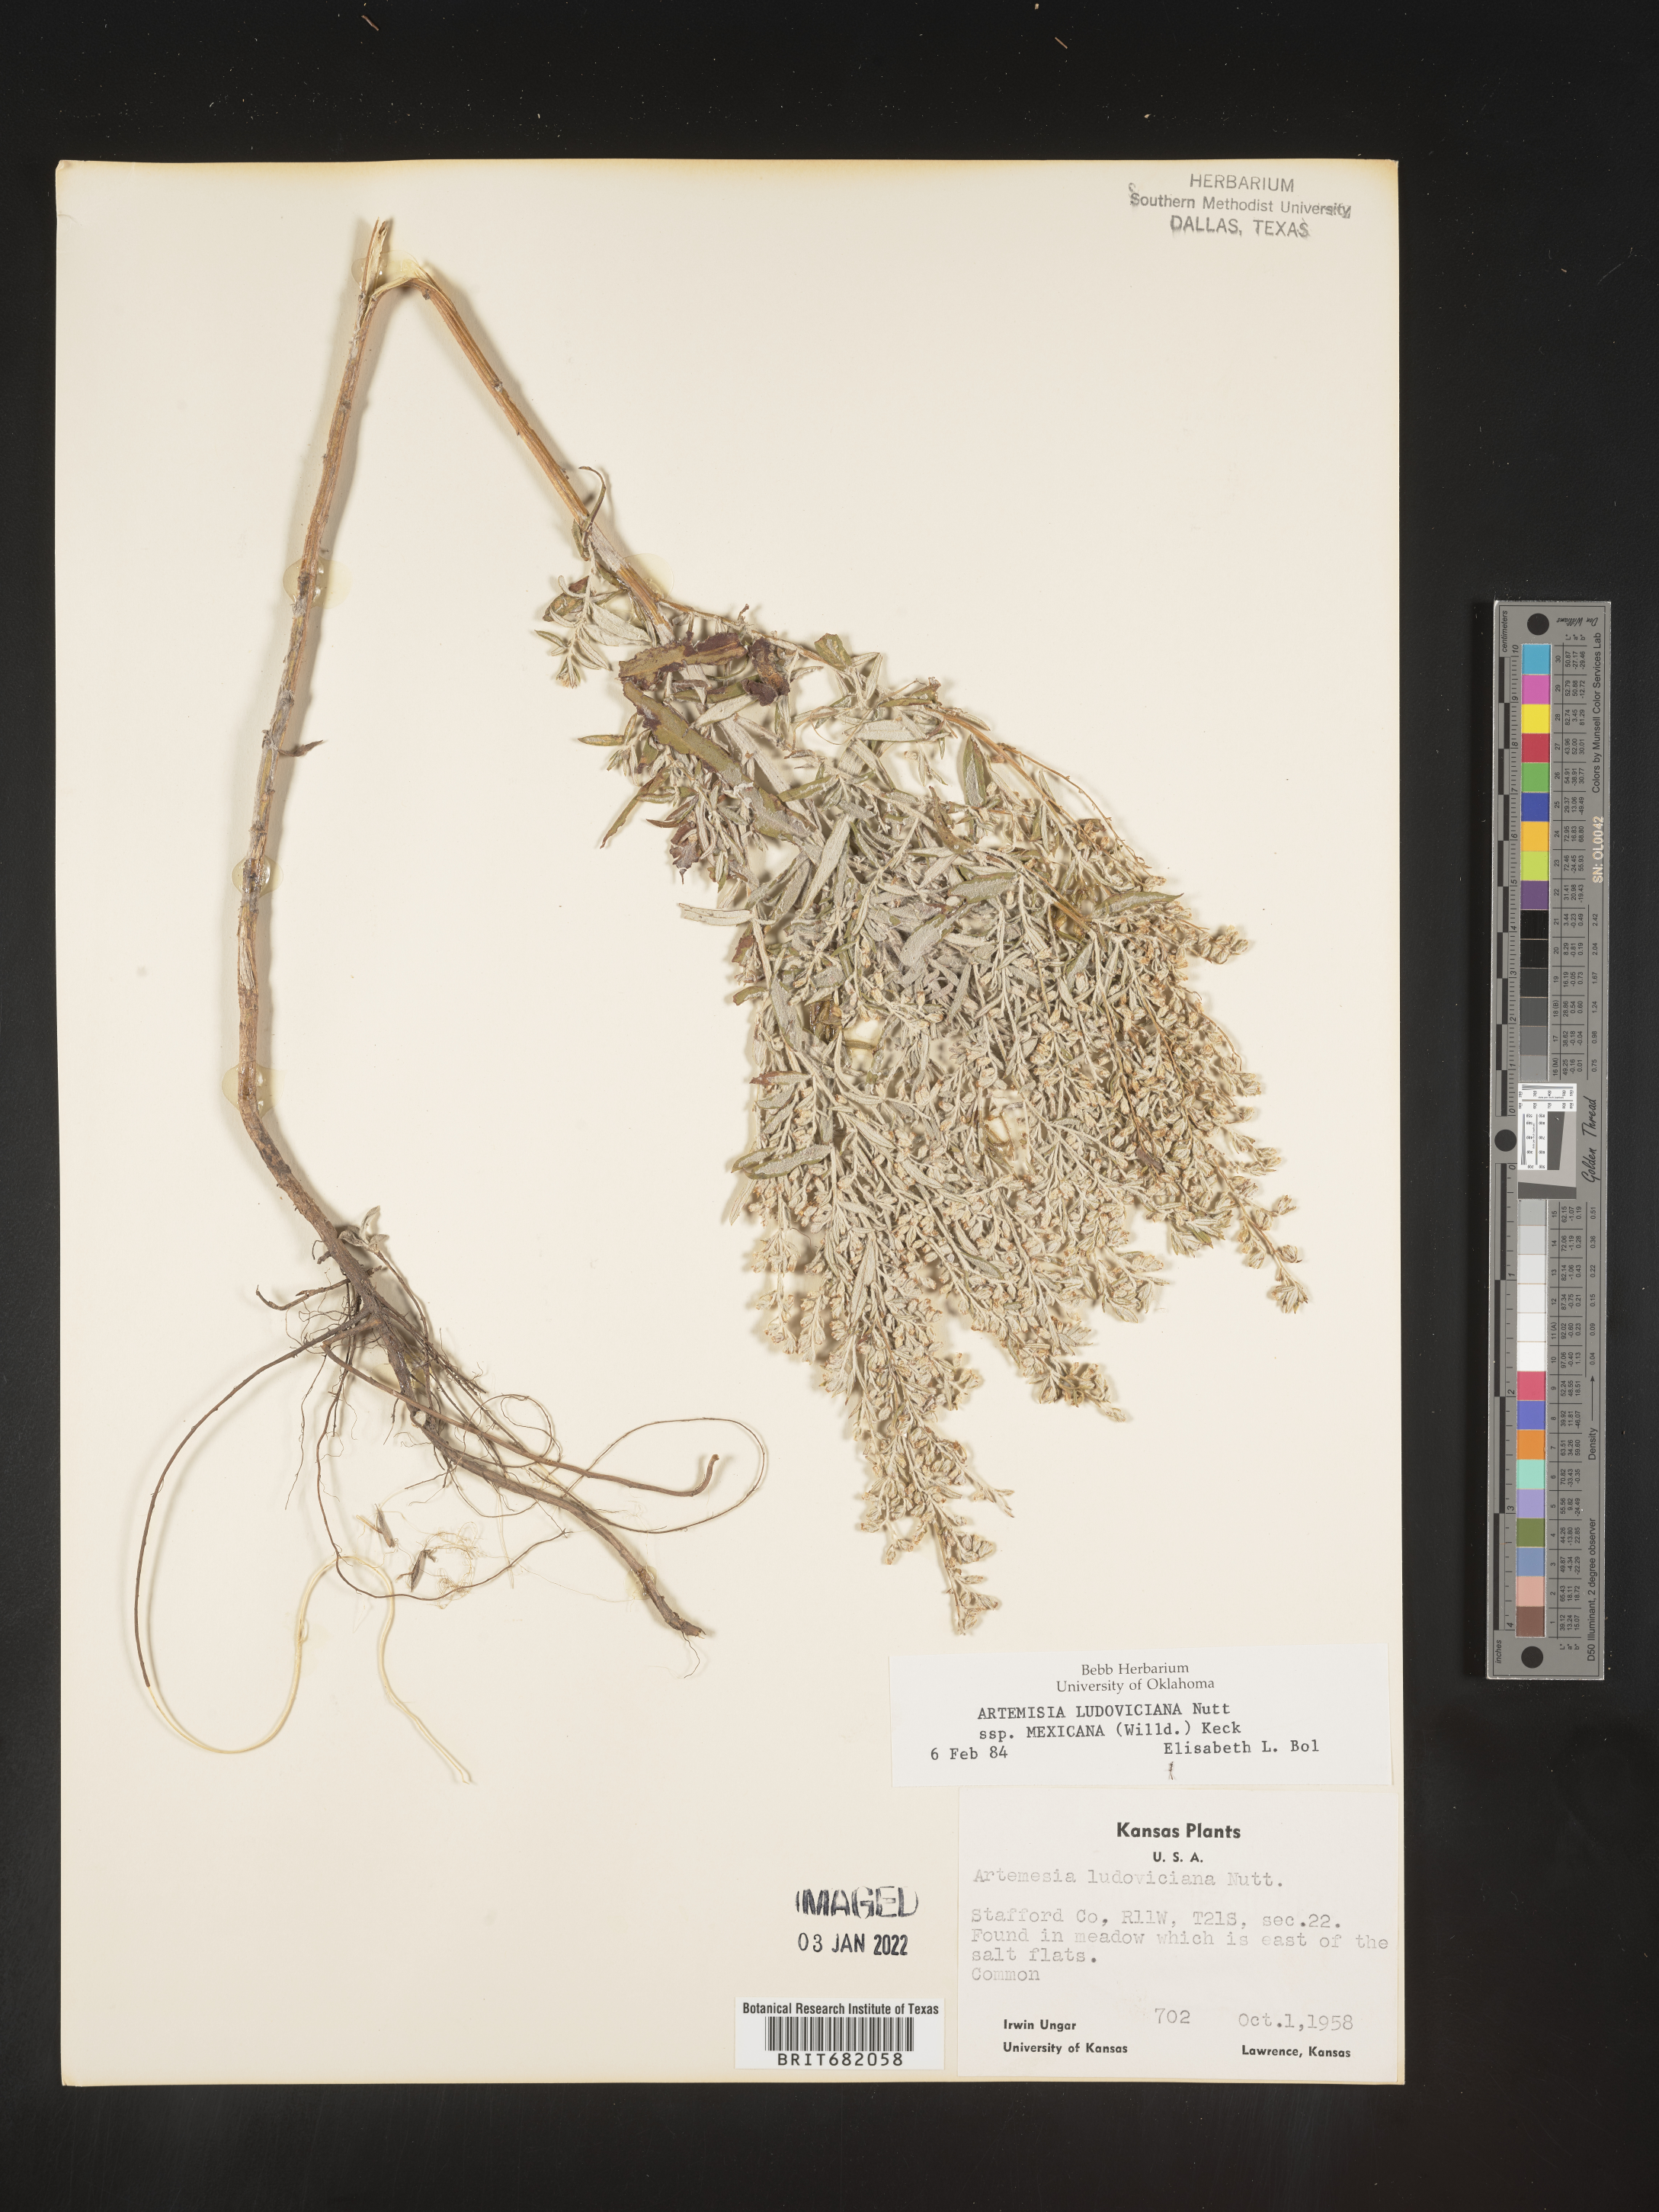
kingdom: Plantae
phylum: Tracheophyta
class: Magnoliopsida
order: Asterales
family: Asteraceae
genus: Artemisia
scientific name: Artemisia ludoviciana
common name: Western mugwort
